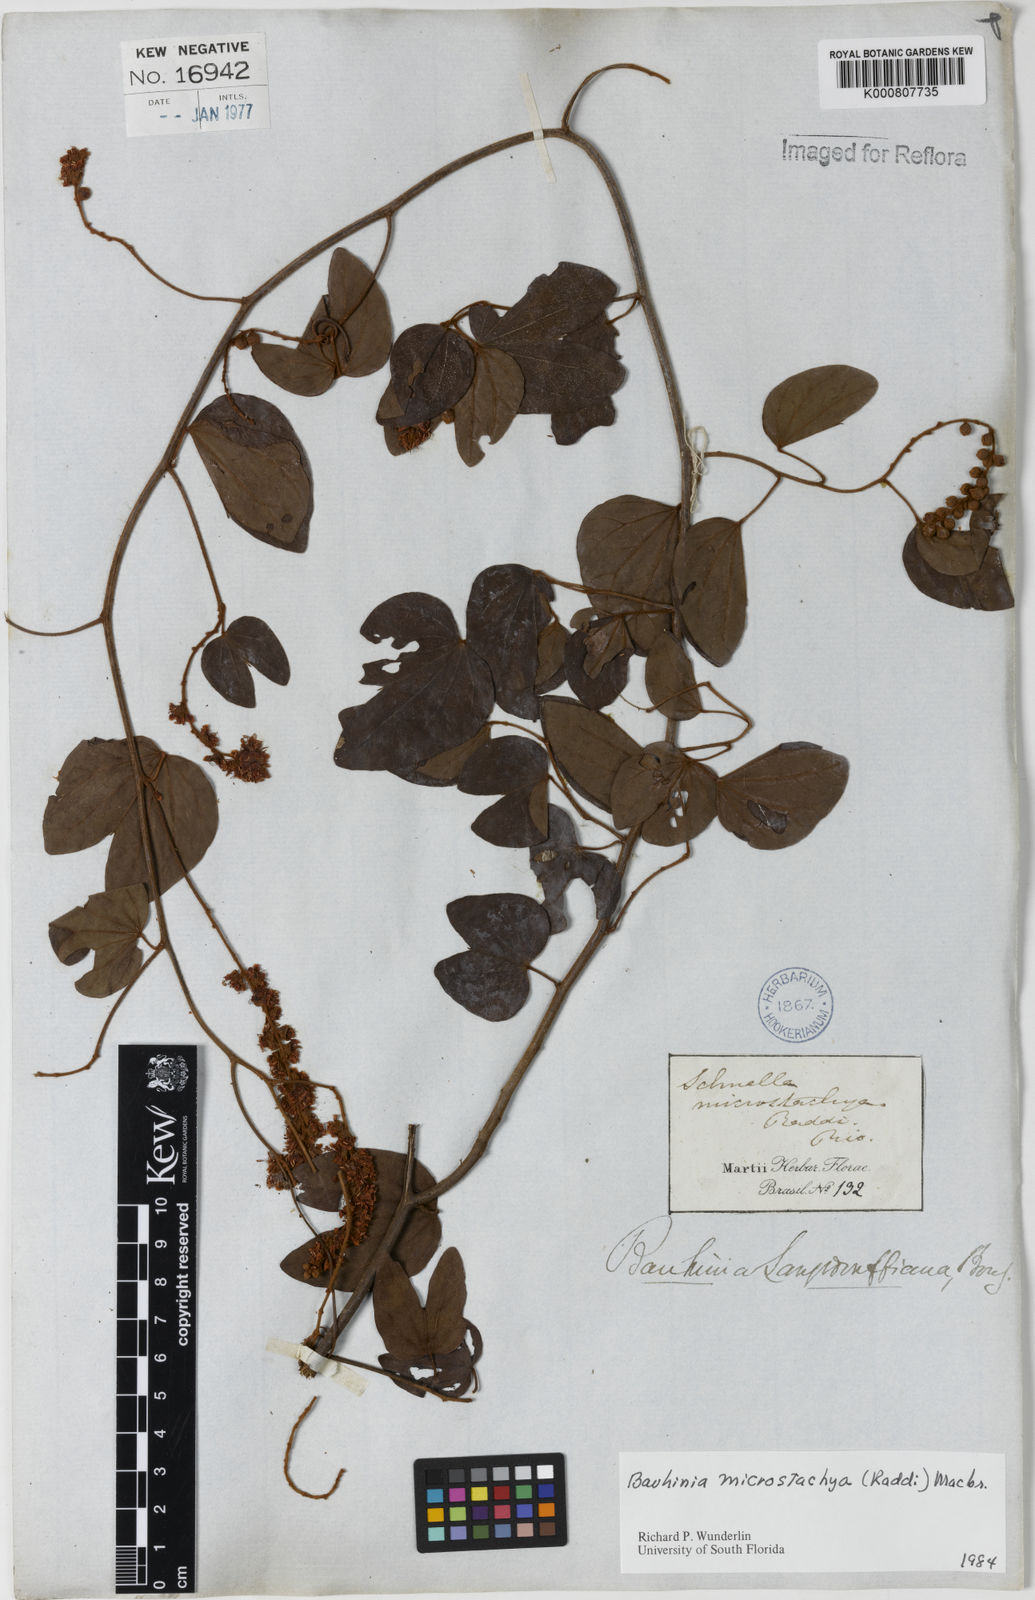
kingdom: Plantae
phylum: Tracheophyta
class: Magnoliopsida
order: Fabales
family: Fabaceae
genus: Schnella
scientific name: Schnella microstachya
